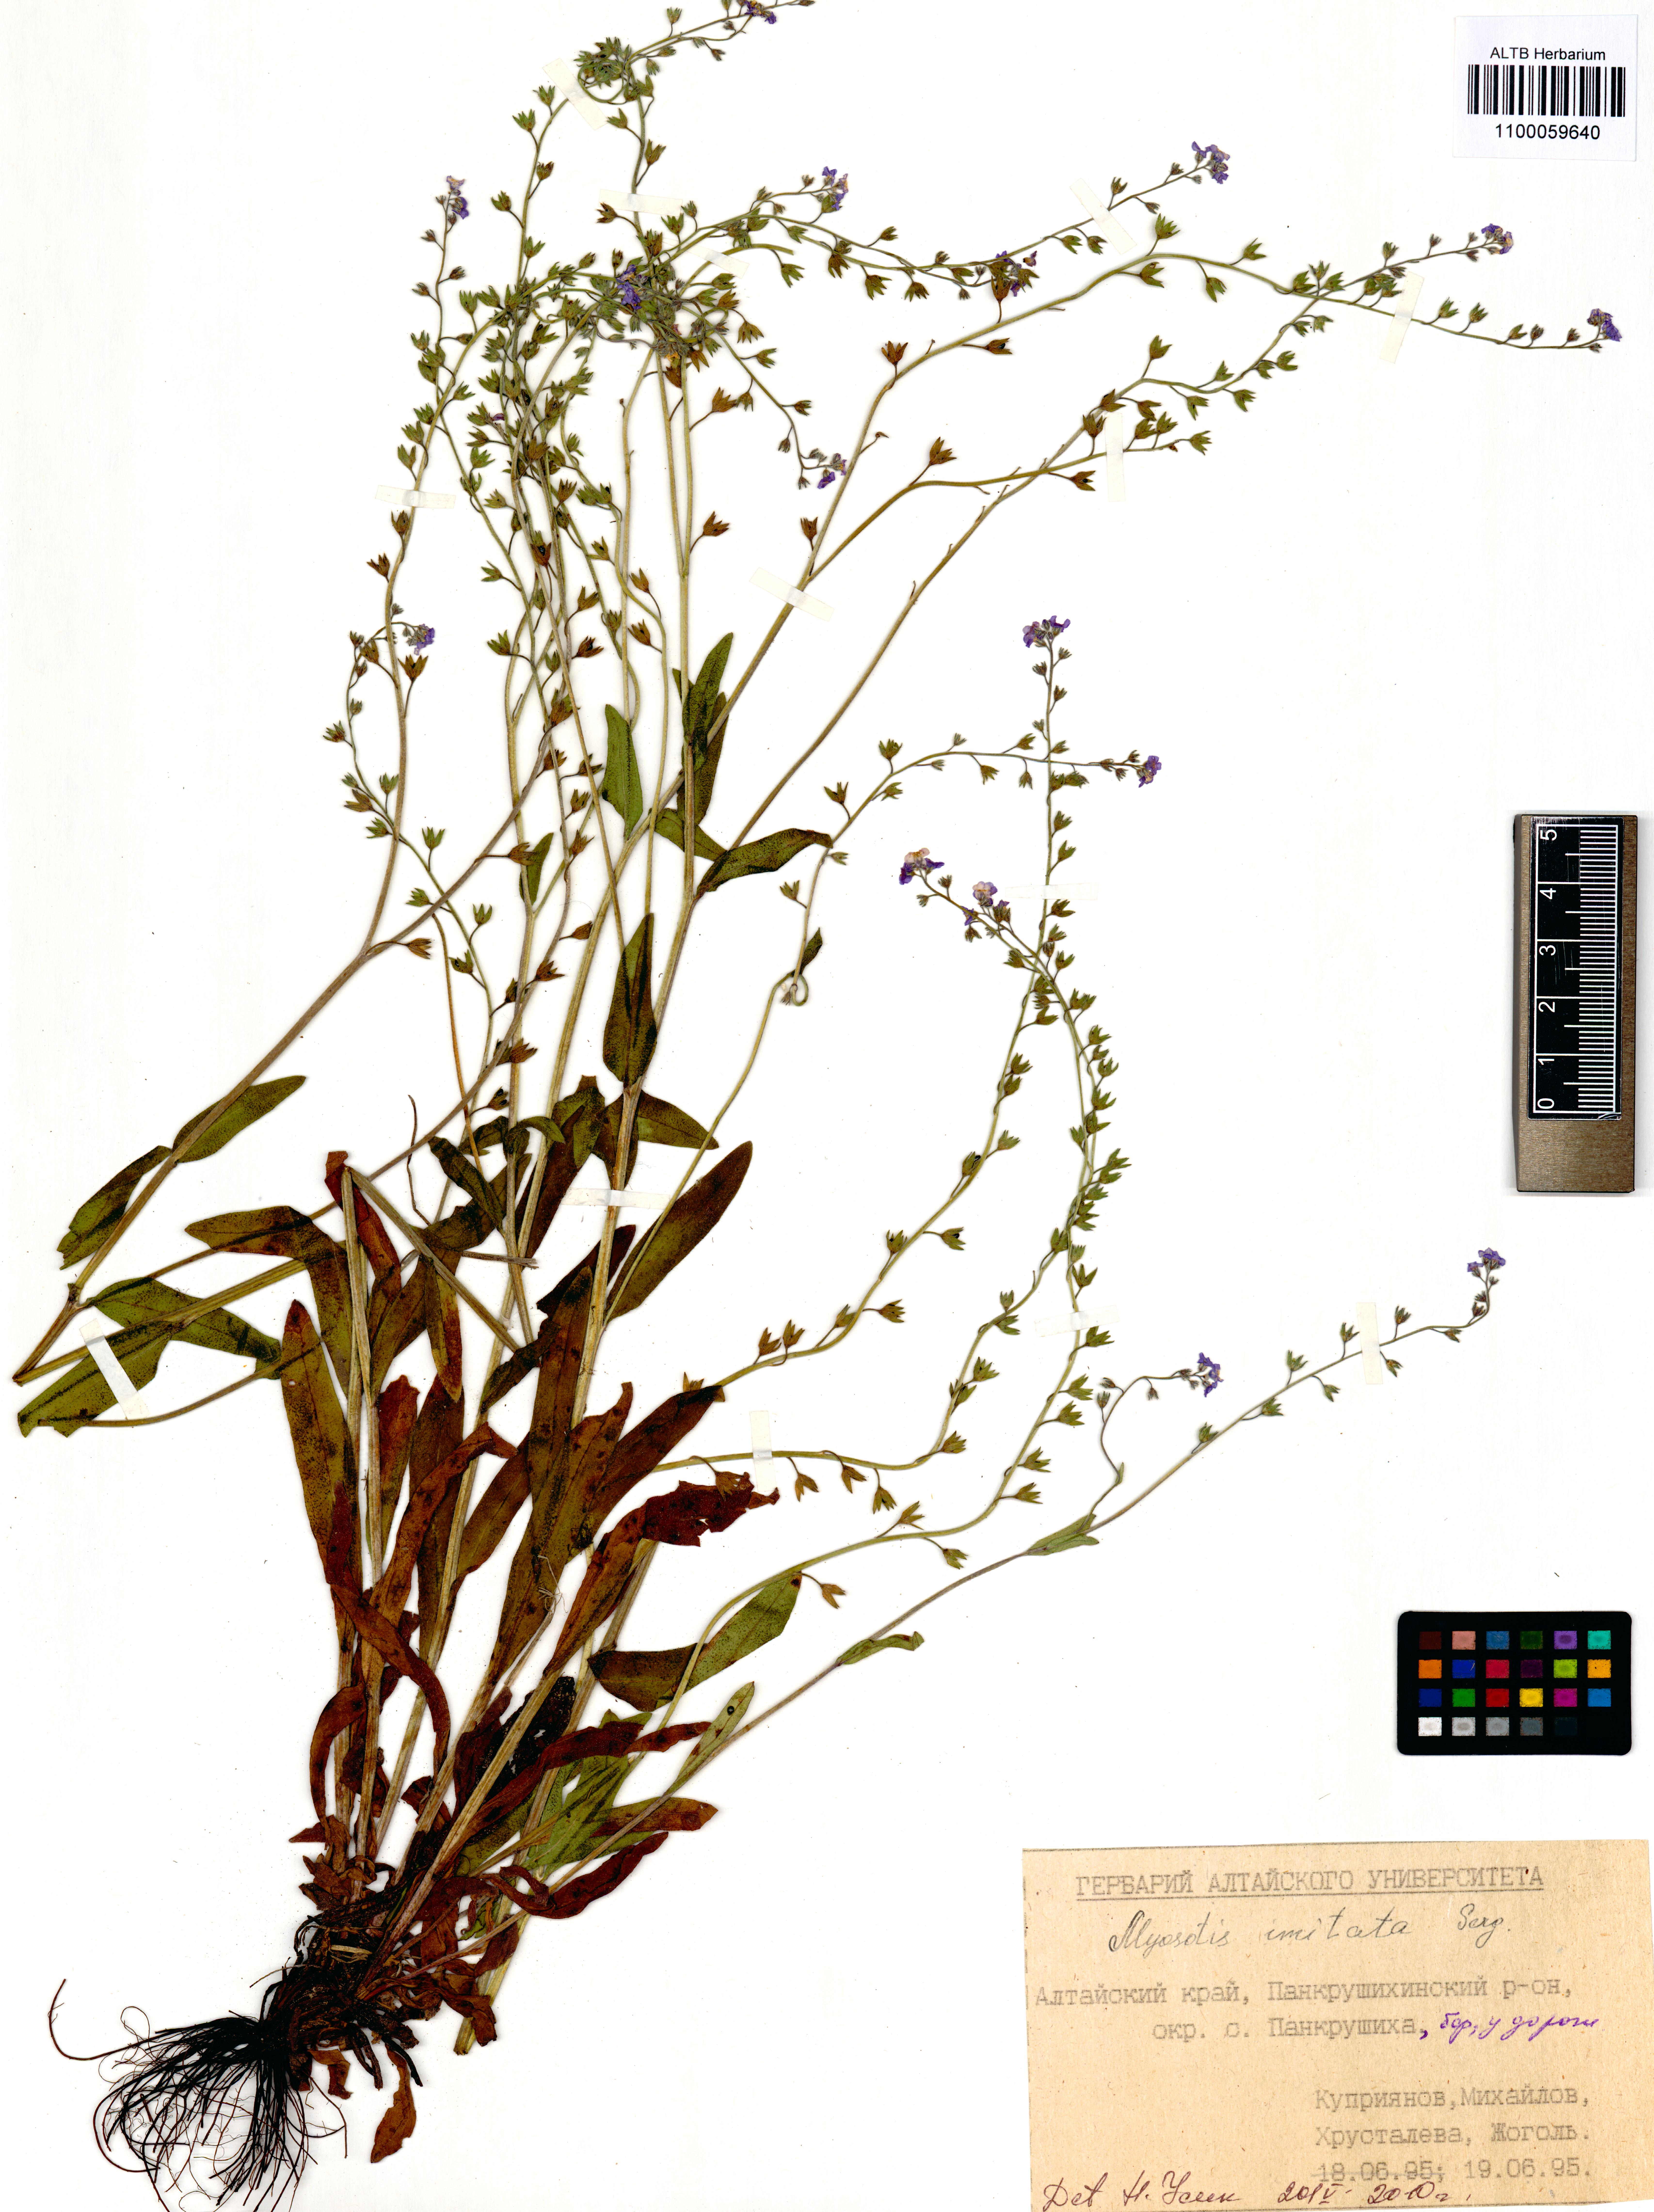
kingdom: Plantae
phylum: Tracheophyta
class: Magnoliopsida
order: Boraginales
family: Boraginaceae
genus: Myosotis
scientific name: Myosotis imitata
